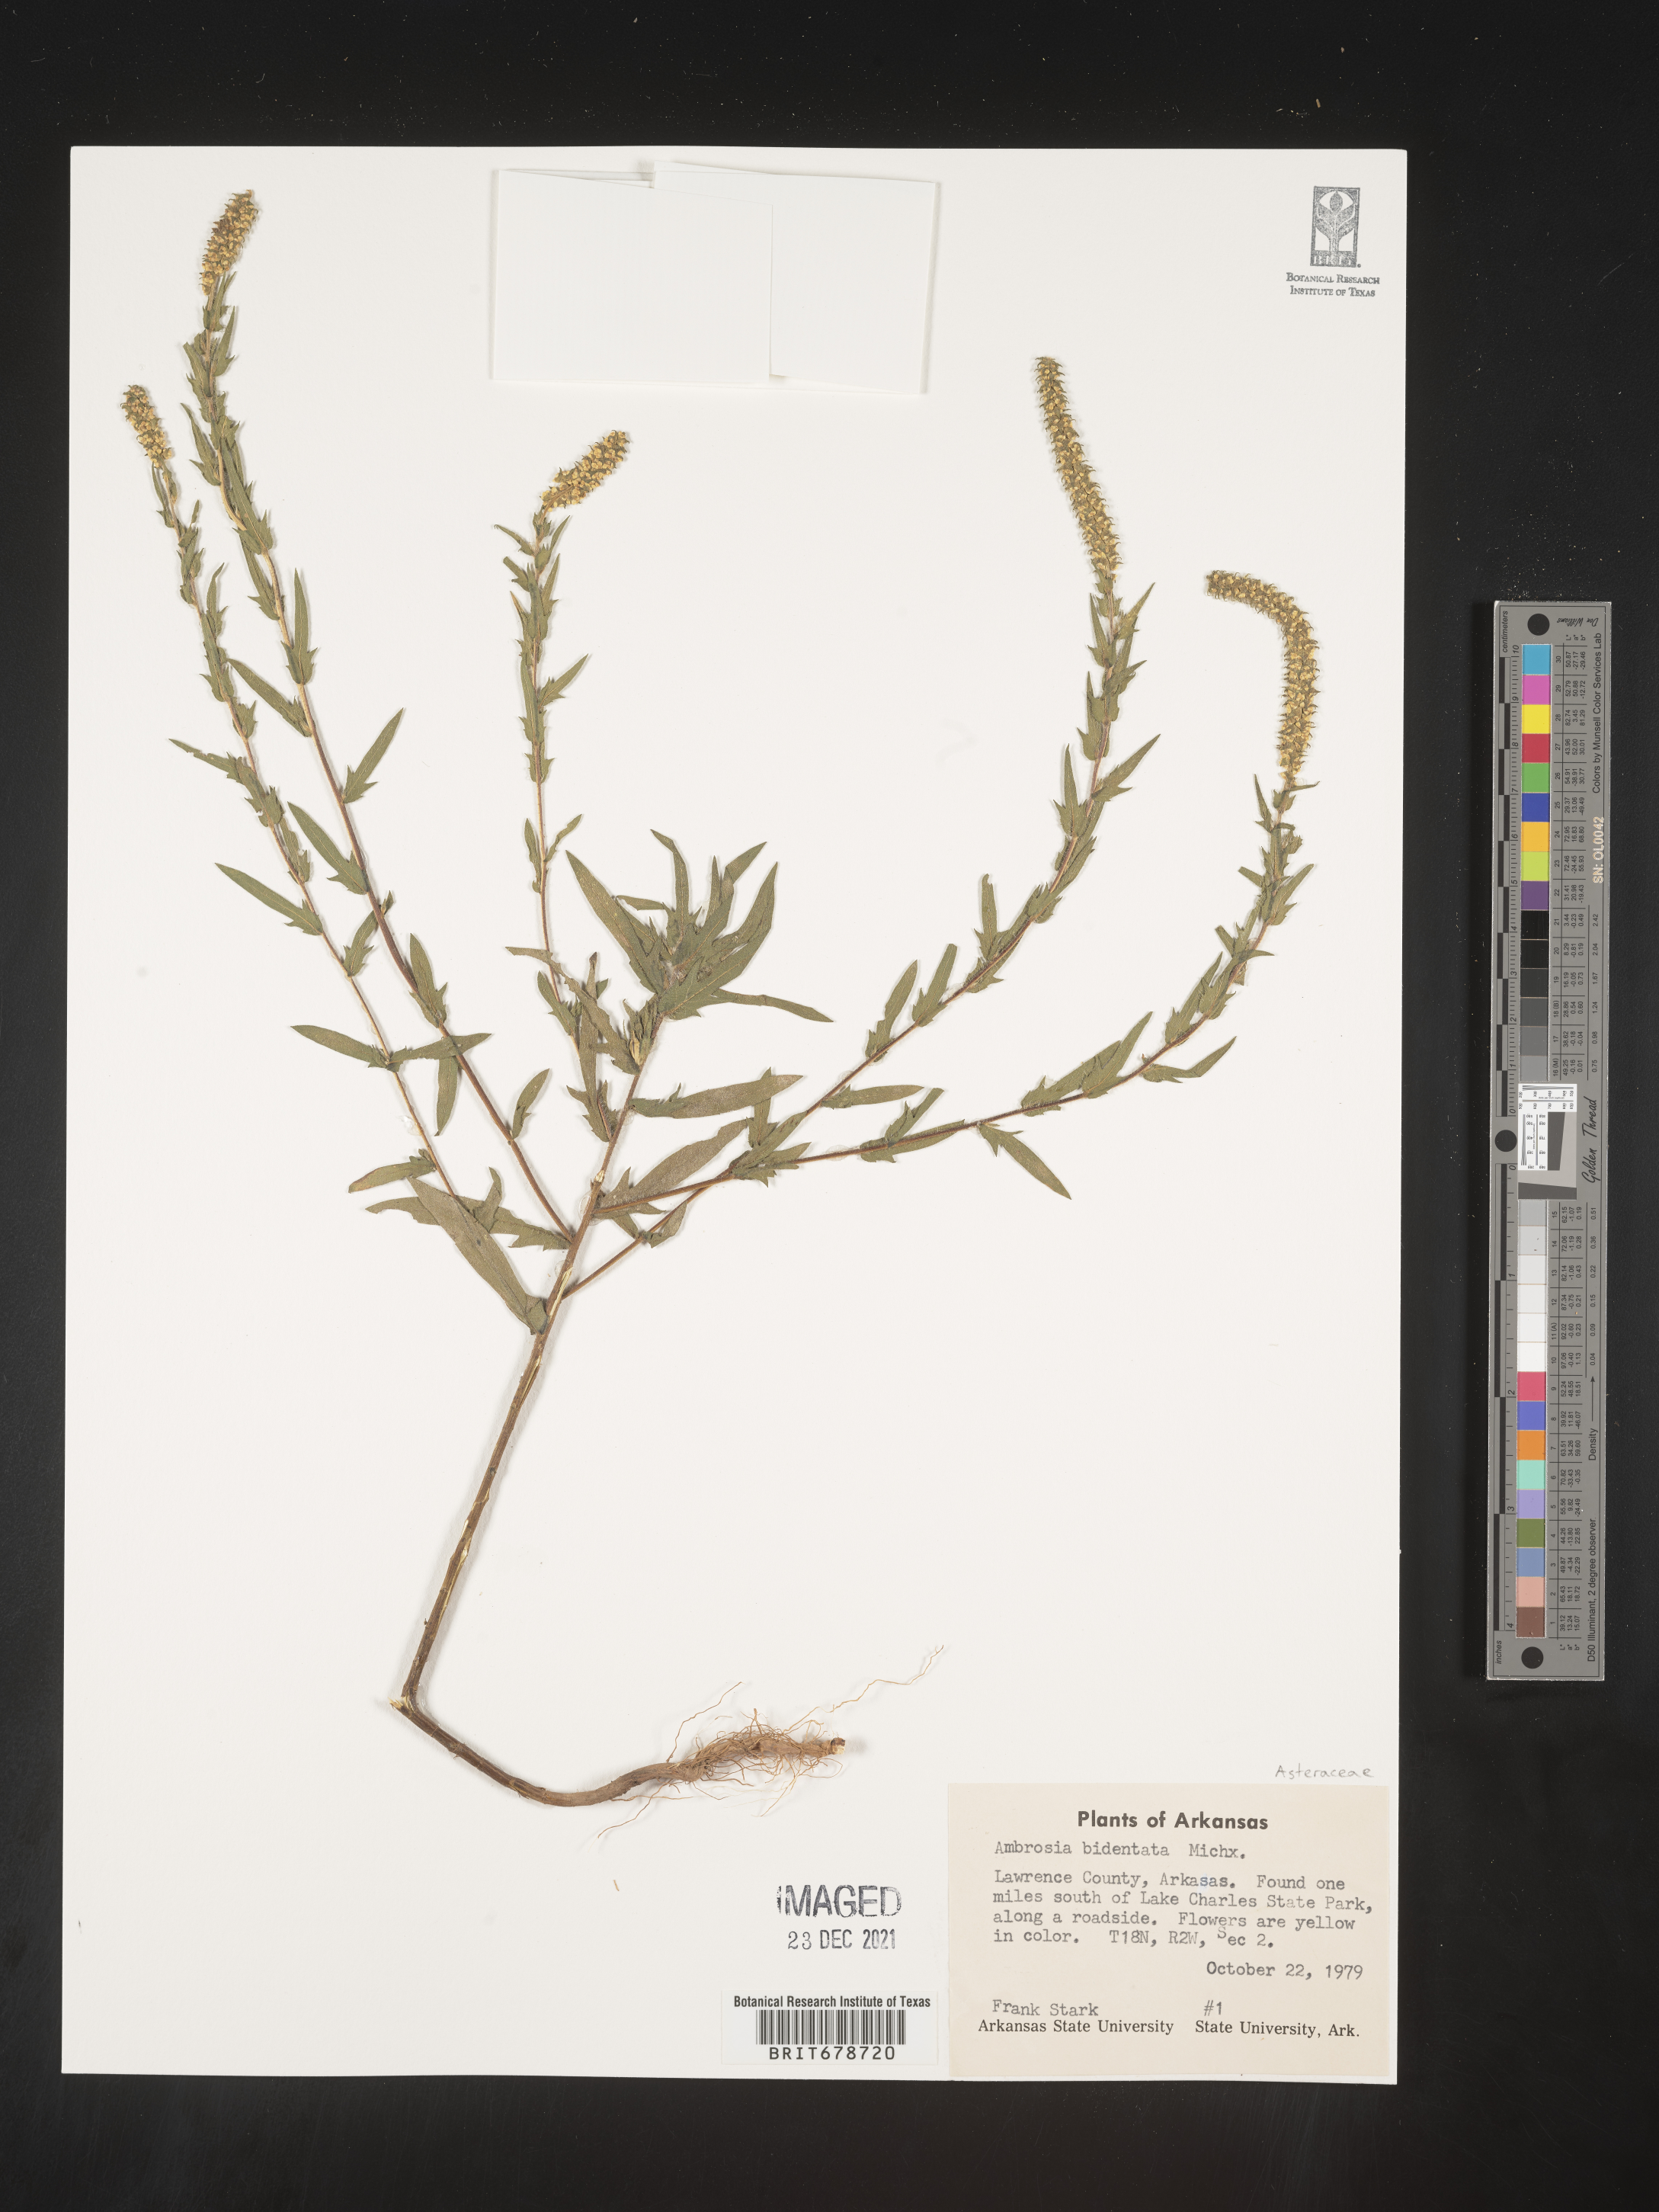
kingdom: Plantae
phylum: Tracheophyta
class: Magnoliopsida
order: Asterales
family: Asteraceae
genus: Ambrosia
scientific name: Ambrosia bidentata
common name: Southern ragweed
